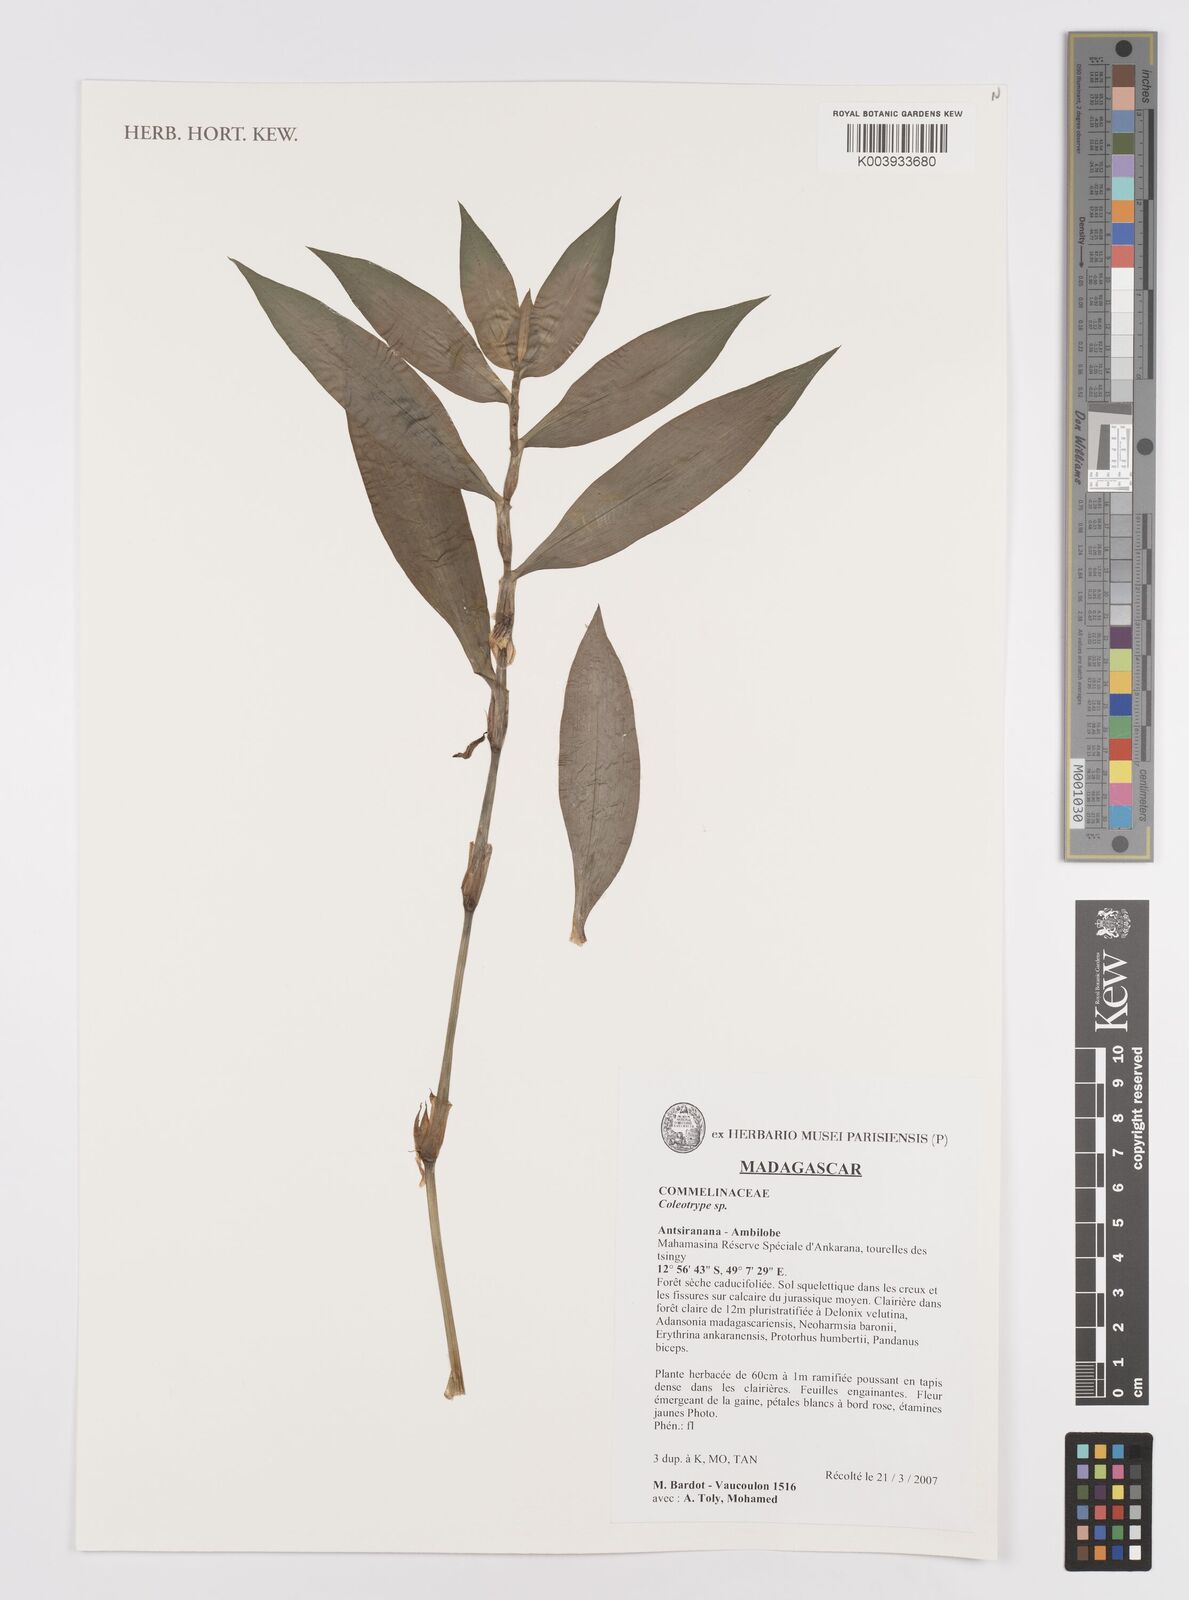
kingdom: Plantae
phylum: Tracheophyta
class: Liliopsida
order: Commelinales
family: Commelinaceae
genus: Coleotrype
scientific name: Coleotrype
